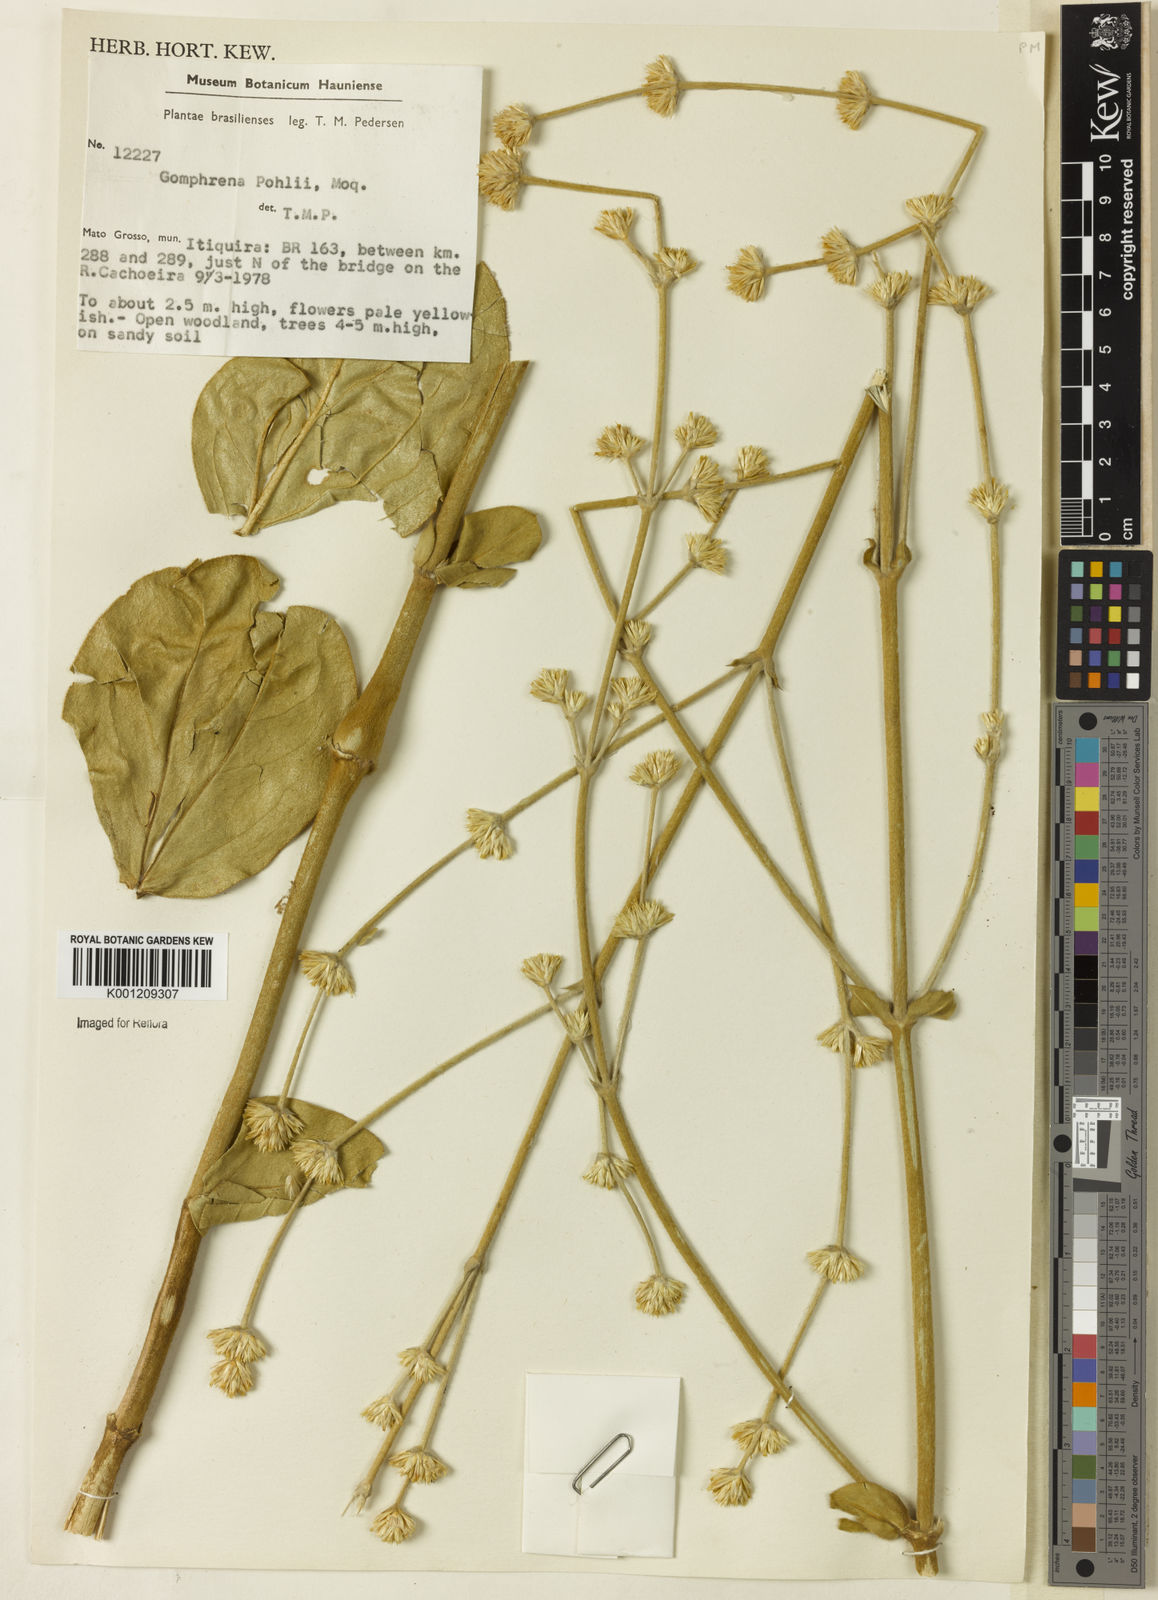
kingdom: Plantae
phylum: Tracheophyta
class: Magnoliopsida
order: Caryophyllales
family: Amaranthaceae
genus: Gomphrena
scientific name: Gomphrena pohlii
